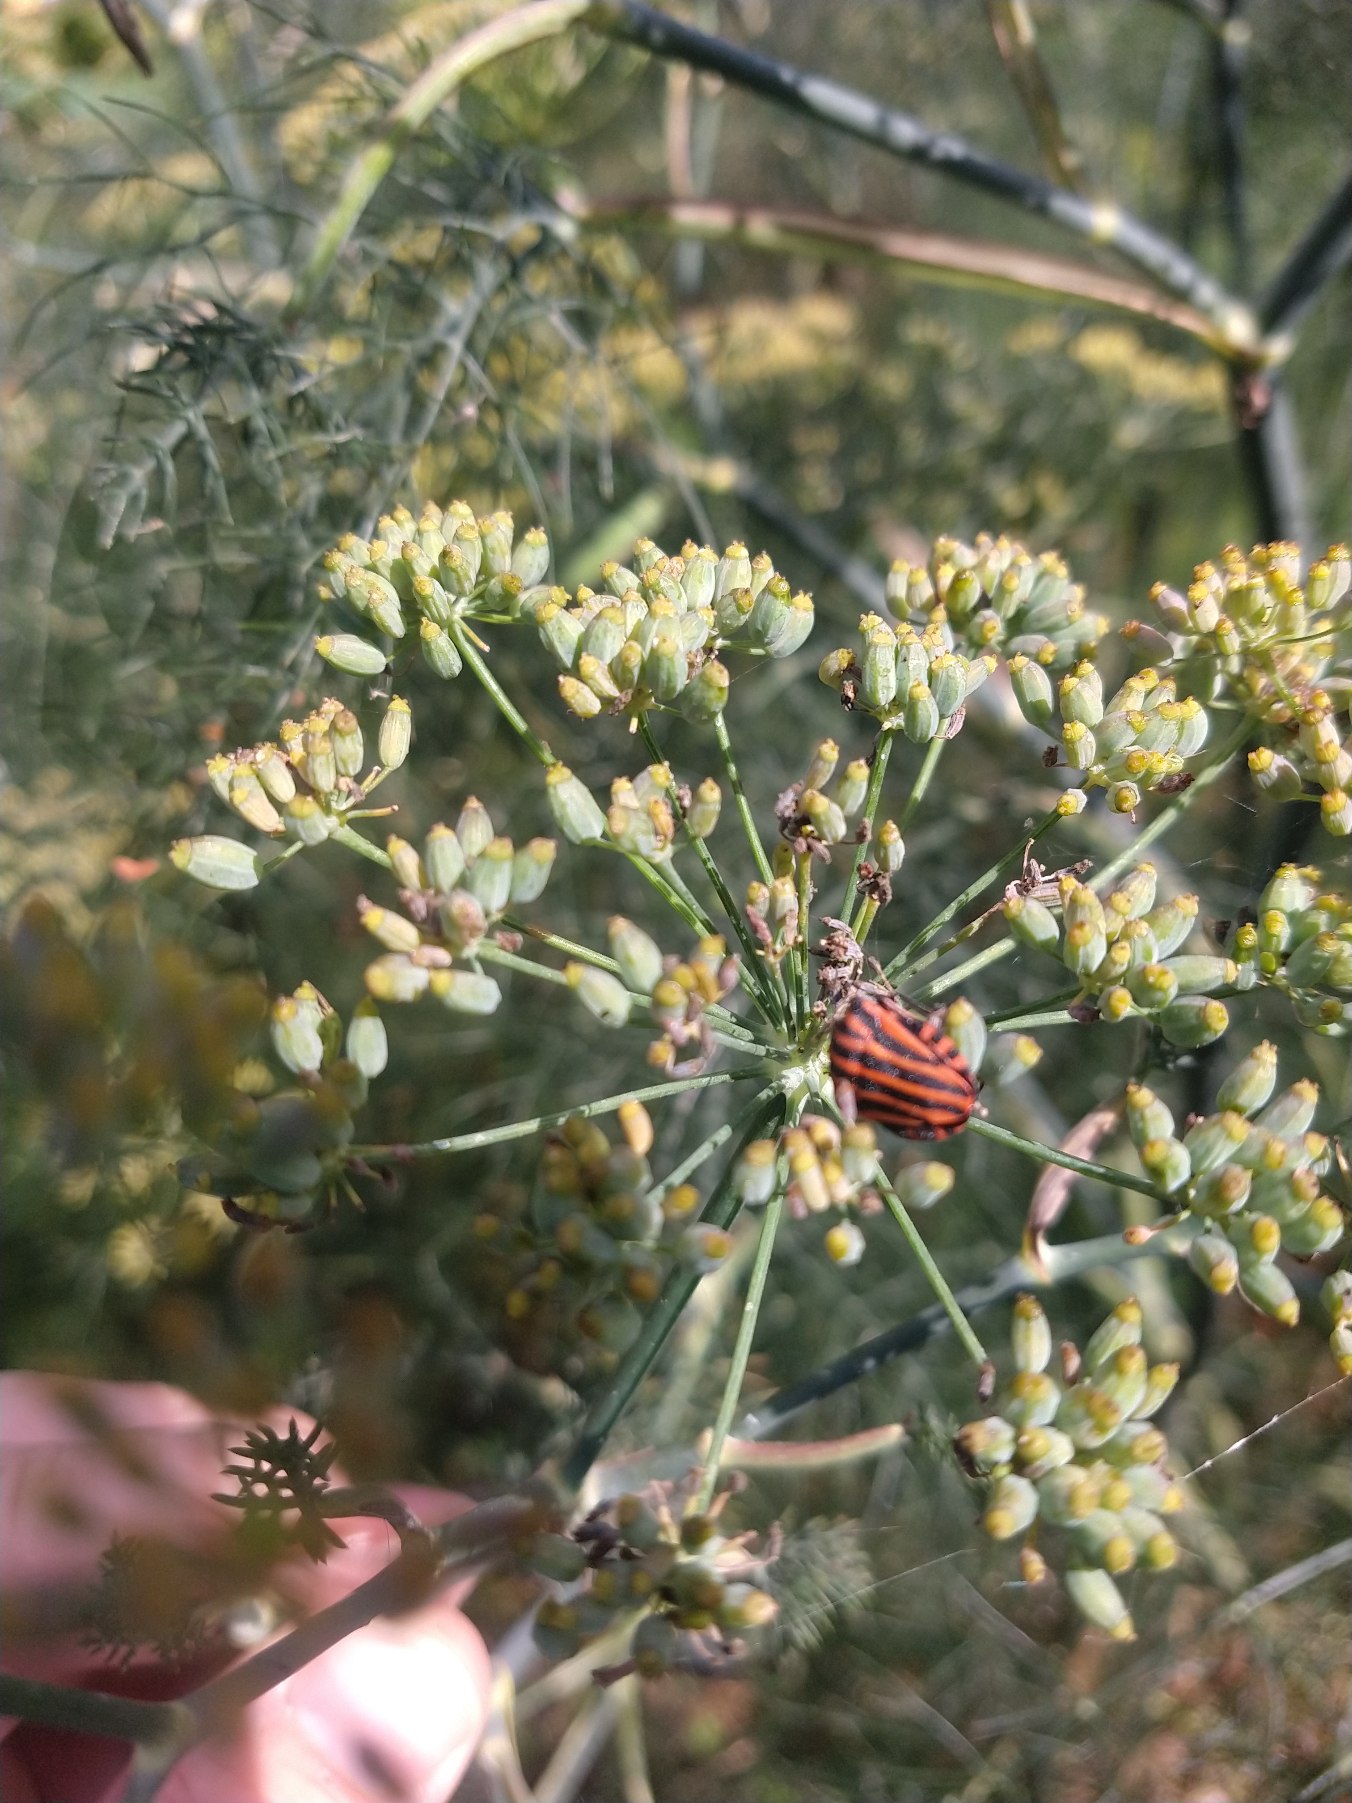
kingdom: Animalia
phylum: Arthropoda
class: Insecta
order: Hemiptera
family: Pentatomidae
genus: Graphosoma
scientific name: Graphosoma italicum
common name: Stribetæge
